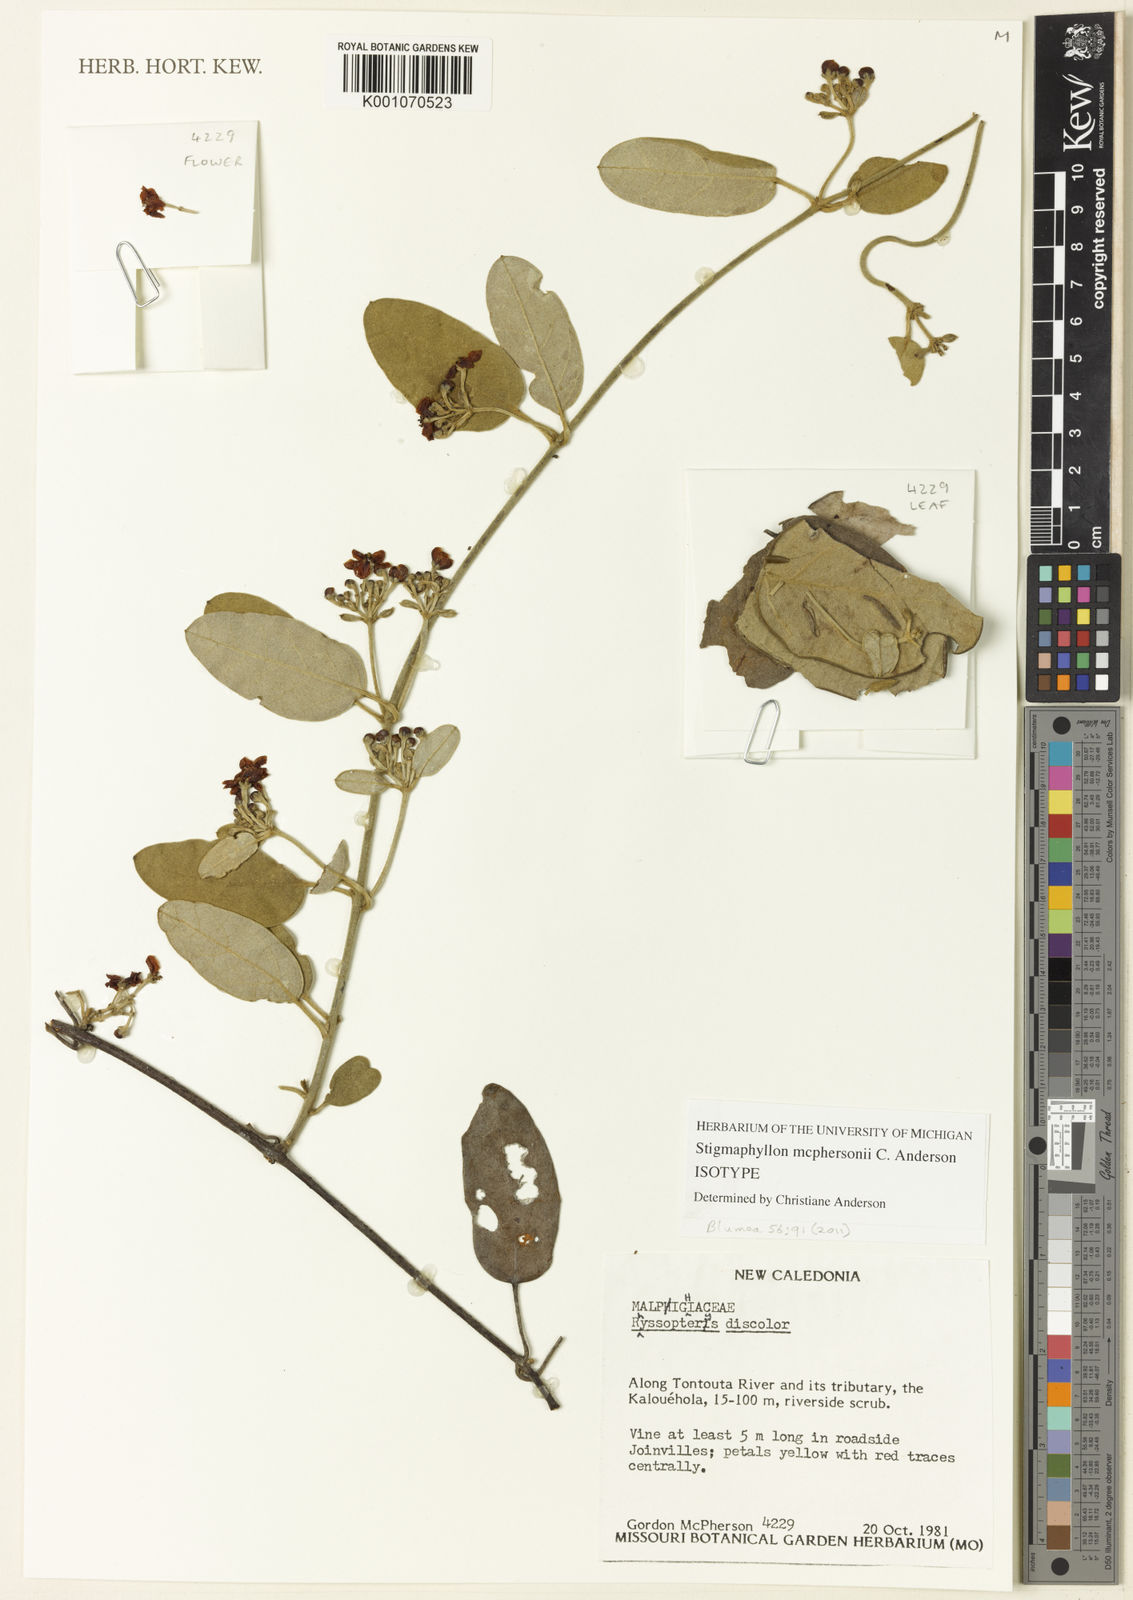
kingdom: Plantae
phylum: Tracheophyta
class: Magnoliopsida
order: Malpighiales
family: Malpighiaceae
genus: Stigmaphyllon
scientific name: Stigmaphyllon mcphersonii
